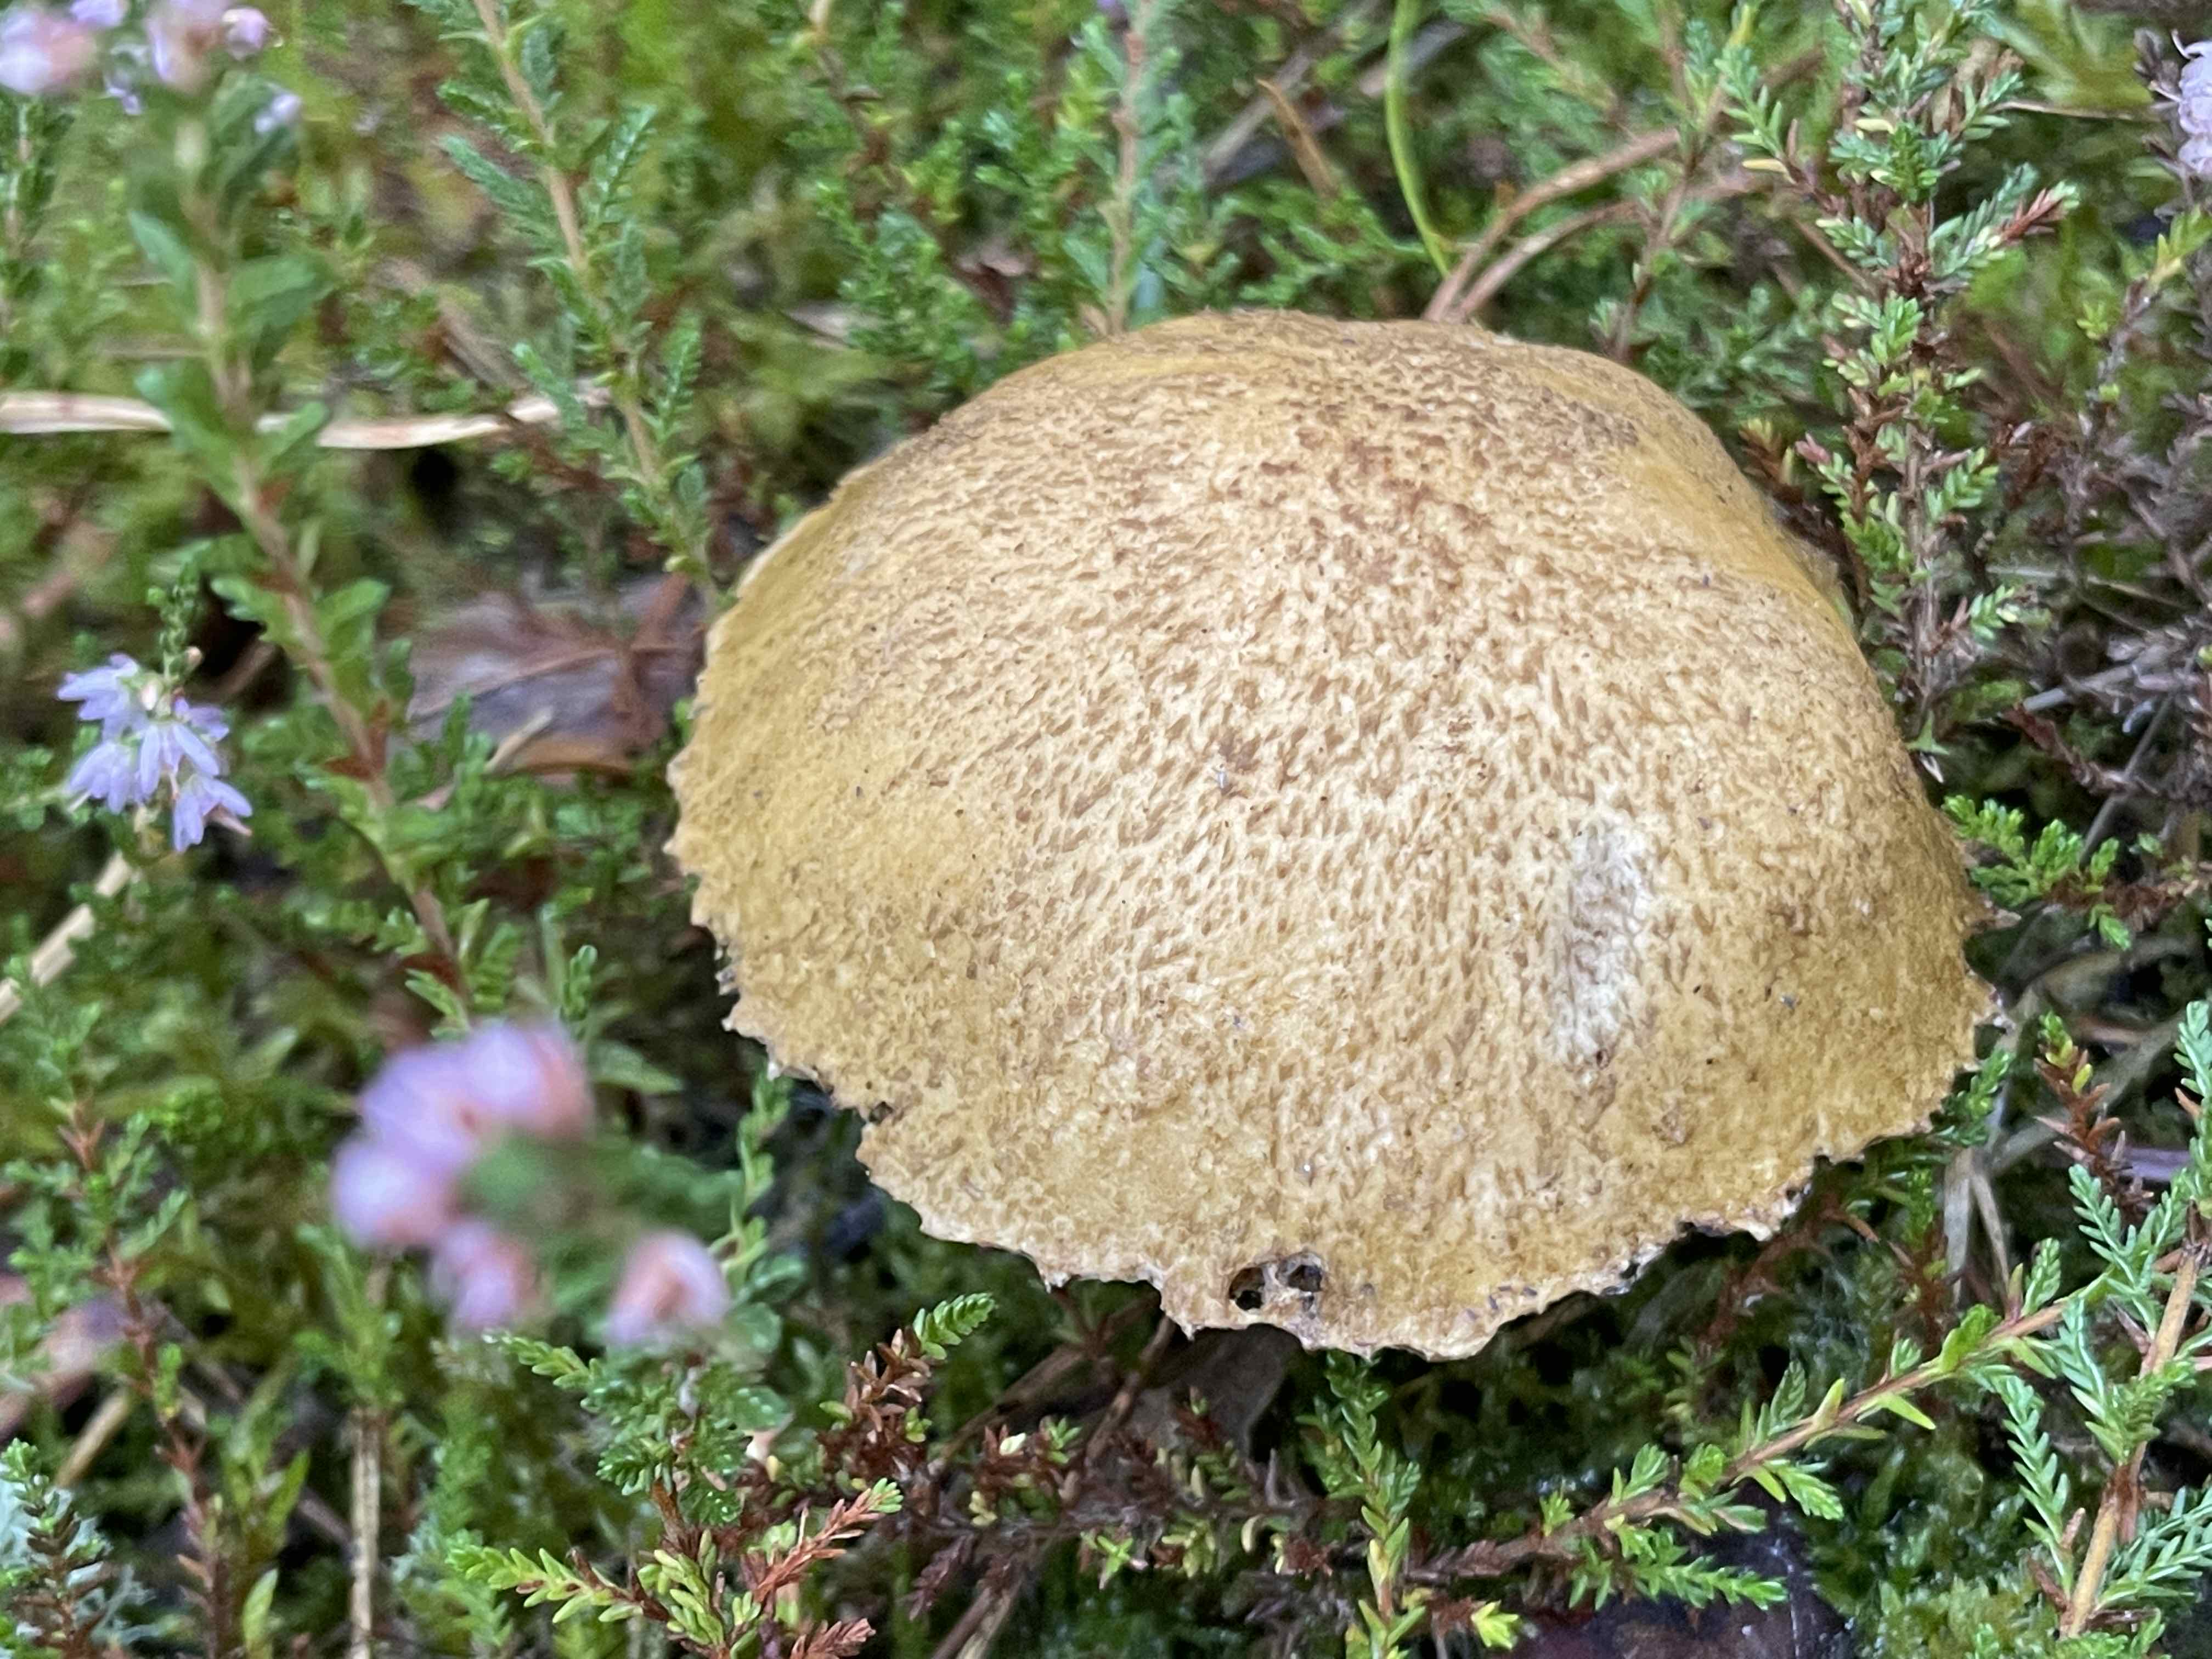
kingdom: Fungi
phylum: Basidiomycota
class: Agaricomycetes
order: Boletales
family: Suillaceae
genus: Suillus
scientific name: Suillus variegatus
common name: broget slimrørhat
